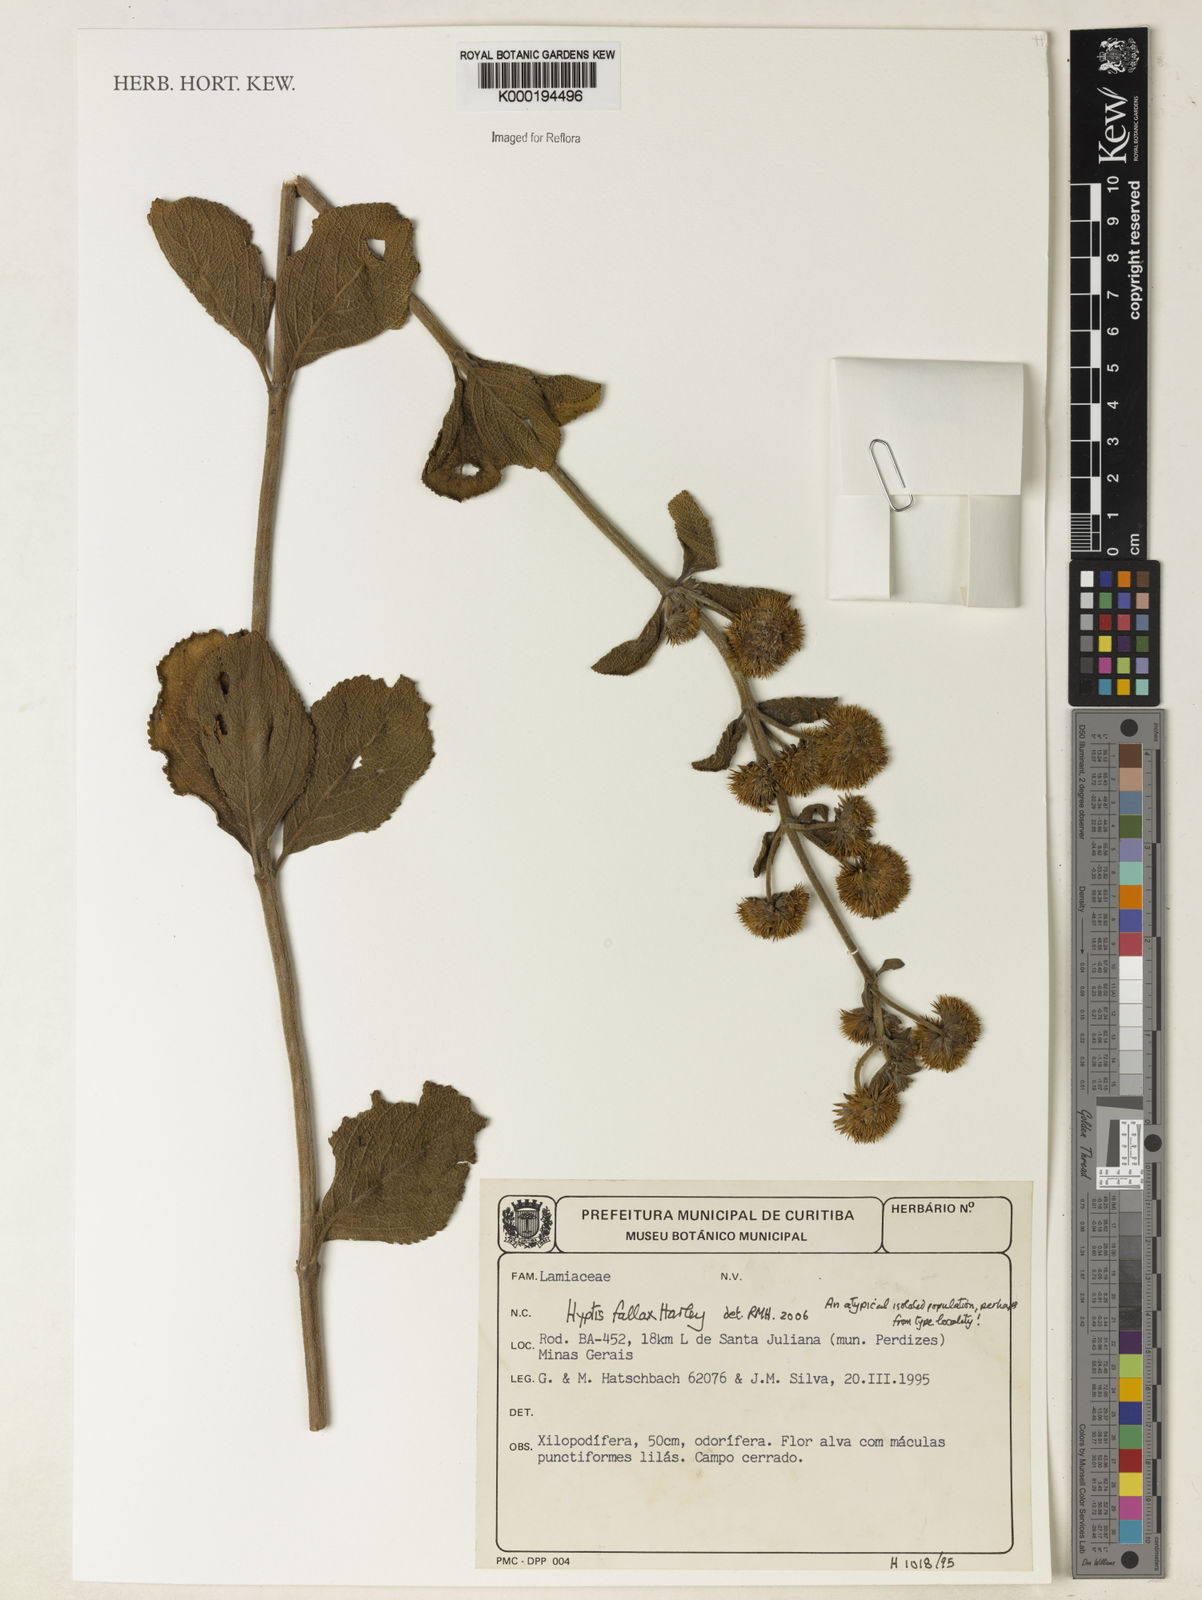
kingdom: Plantae
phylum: Tracheophyta
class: Magnoliopsida
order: Lamiales
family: Lamiaceae
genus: Hyptis
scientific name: Hyptis fallax
